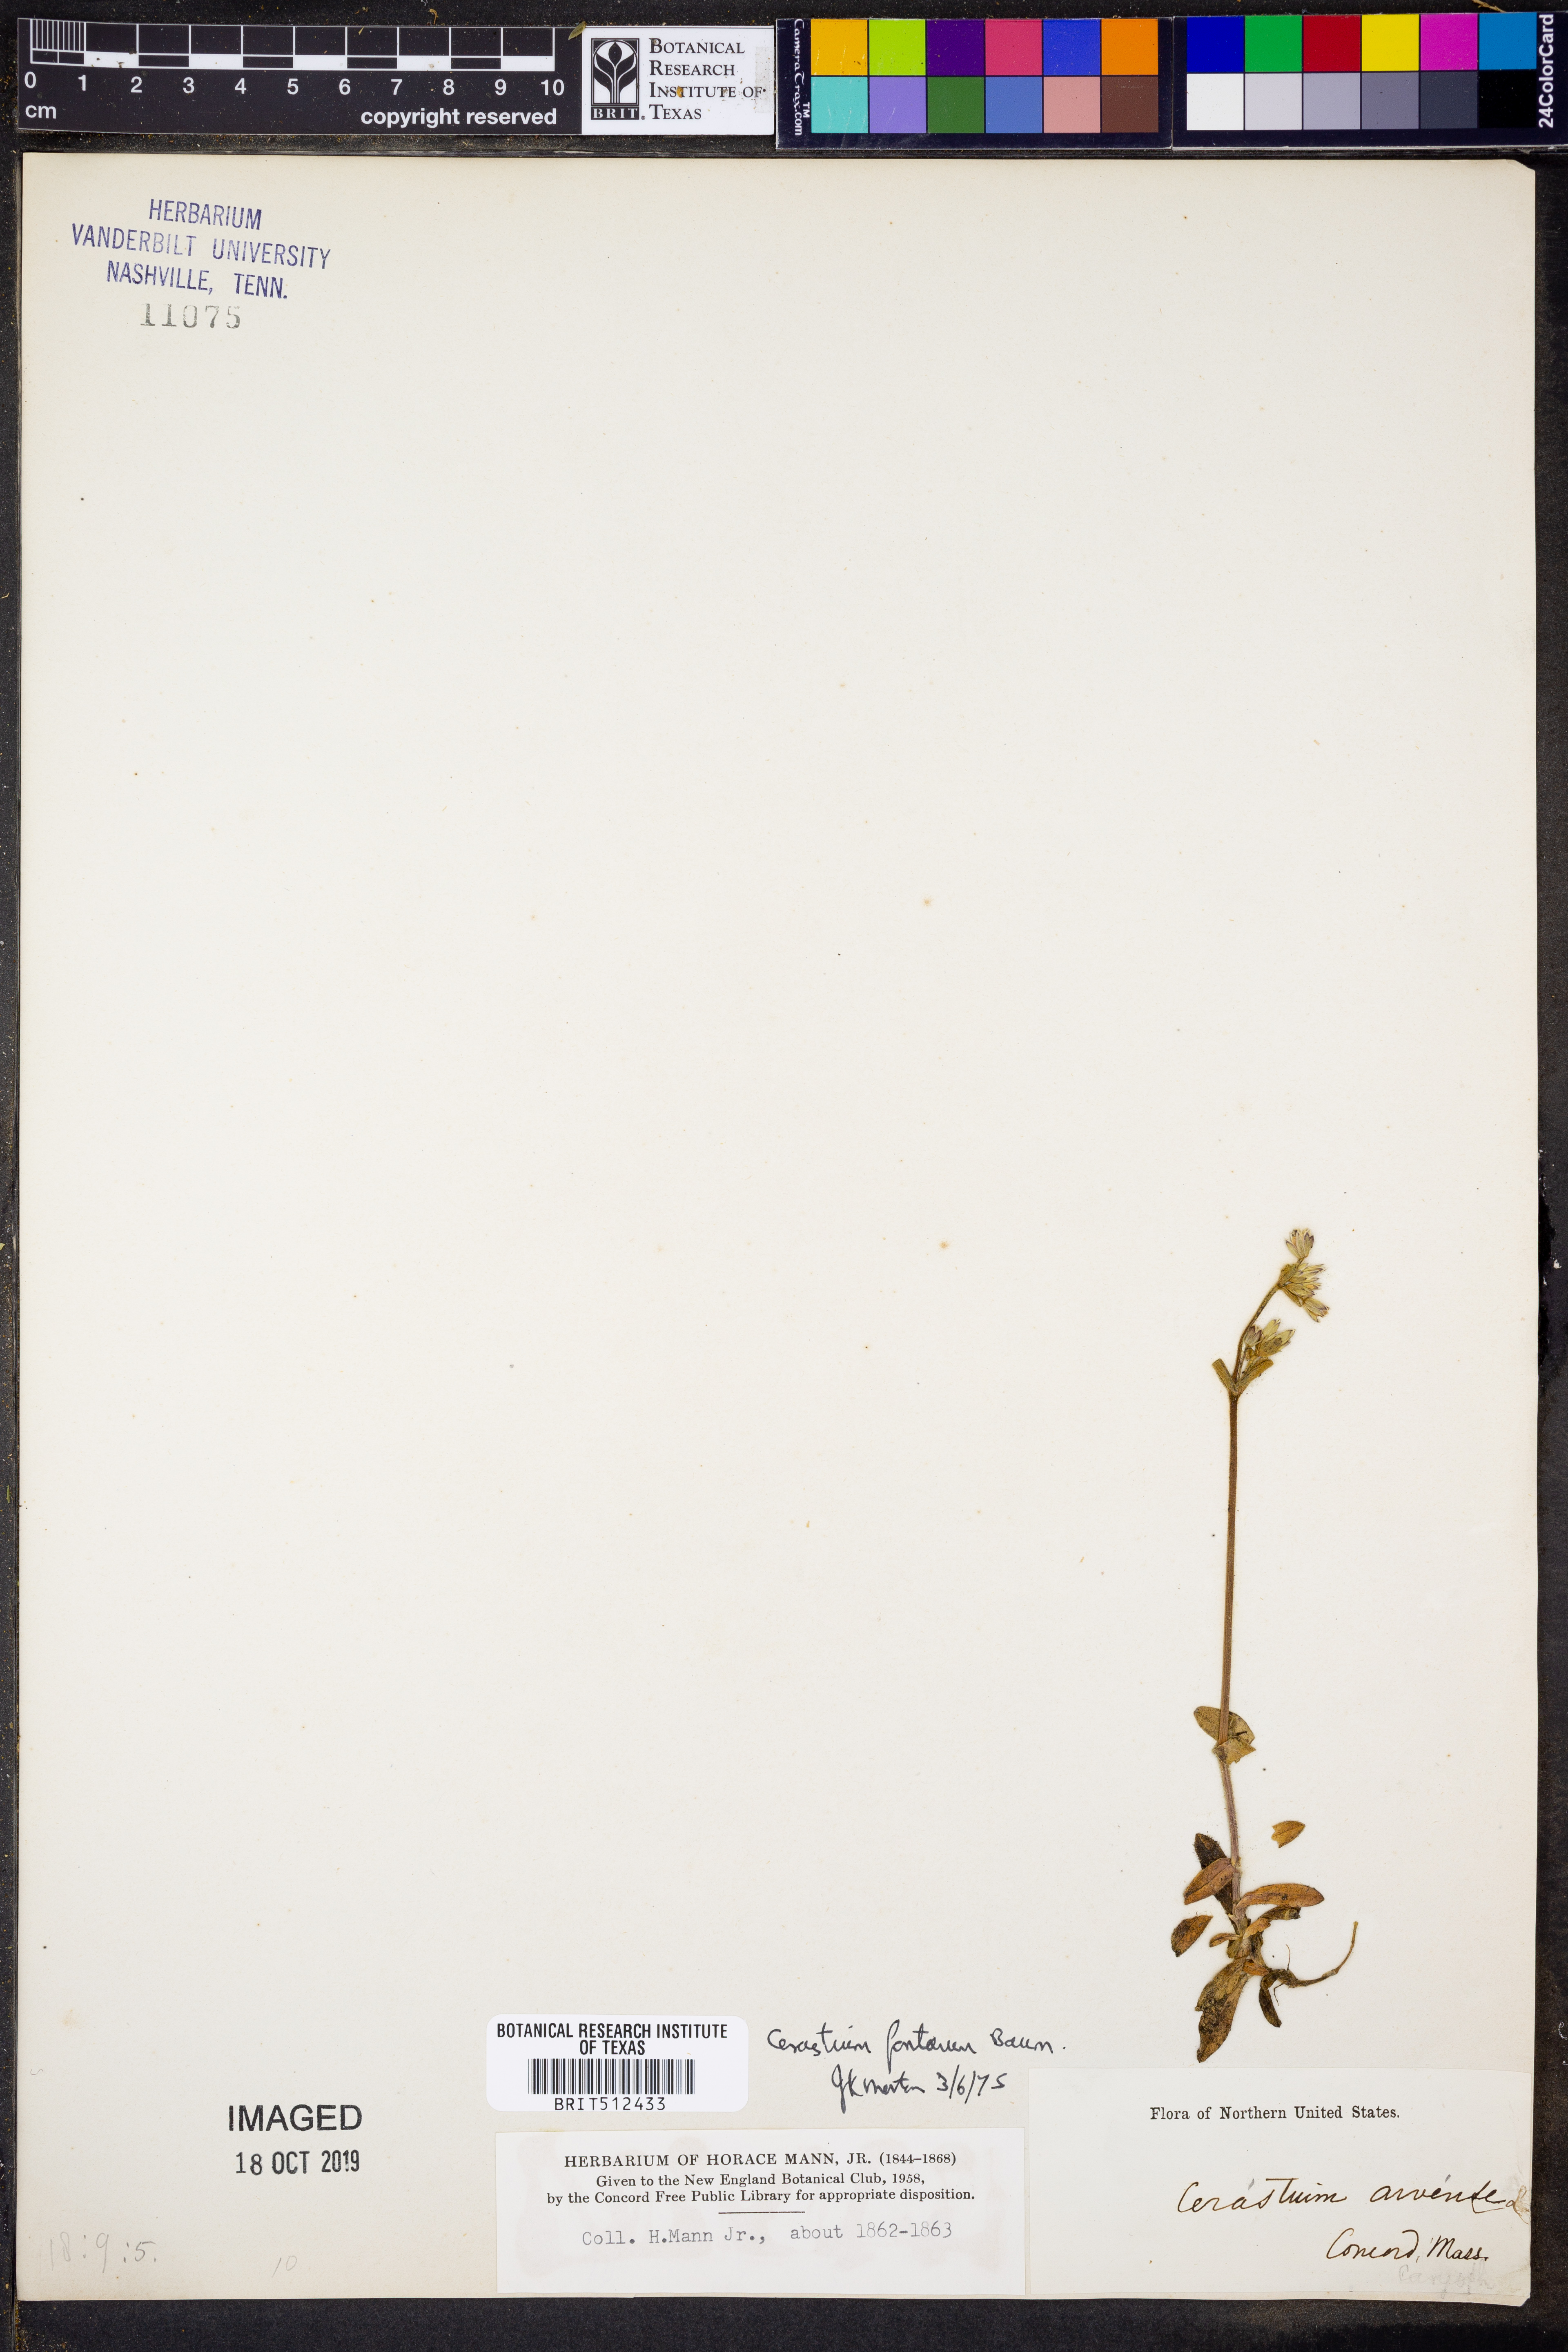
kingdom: Plantae
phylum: Tracheophyta
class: Magnoliopsida
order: Caryophyllales
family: Caryophyllaceae
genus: Cerastium
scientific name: Cerastium fontanum
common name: Common mouse-ear
